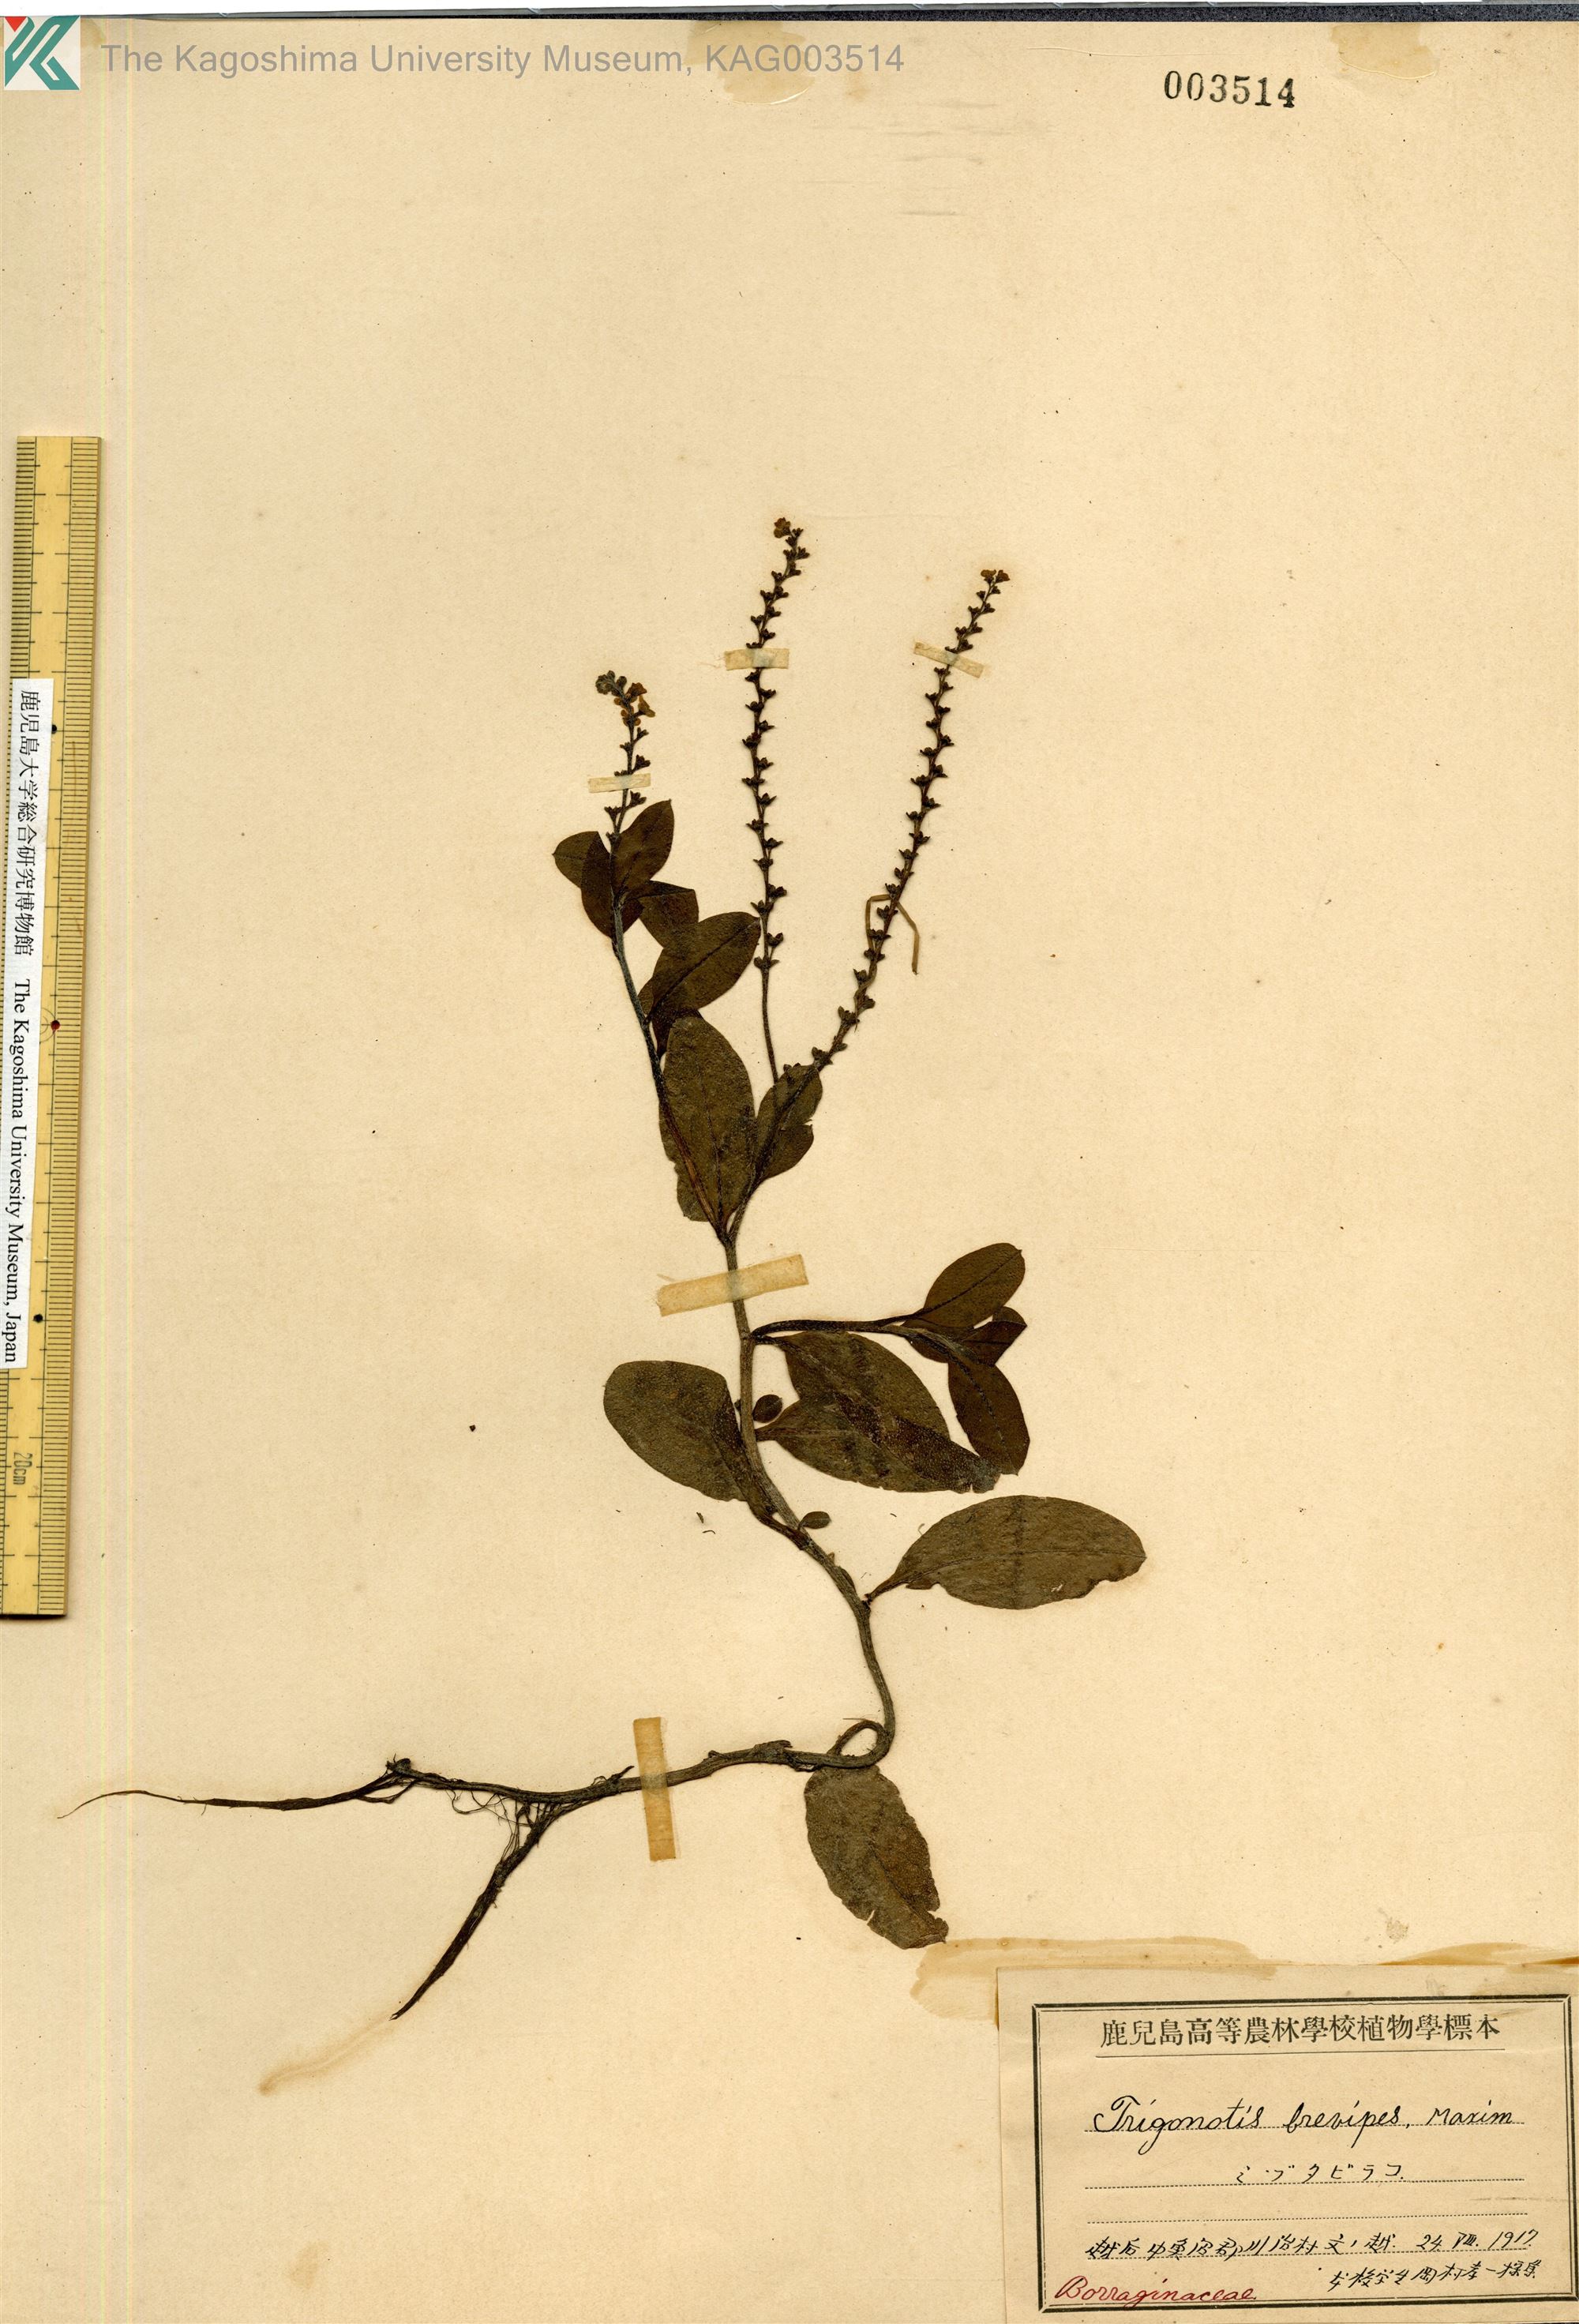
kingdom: Plantae
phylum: Tracheophyta
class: Magnoliopsida
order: Boraginales
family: Boraginaceae
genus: Trigonotis
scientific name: Trigonotis brevipes
